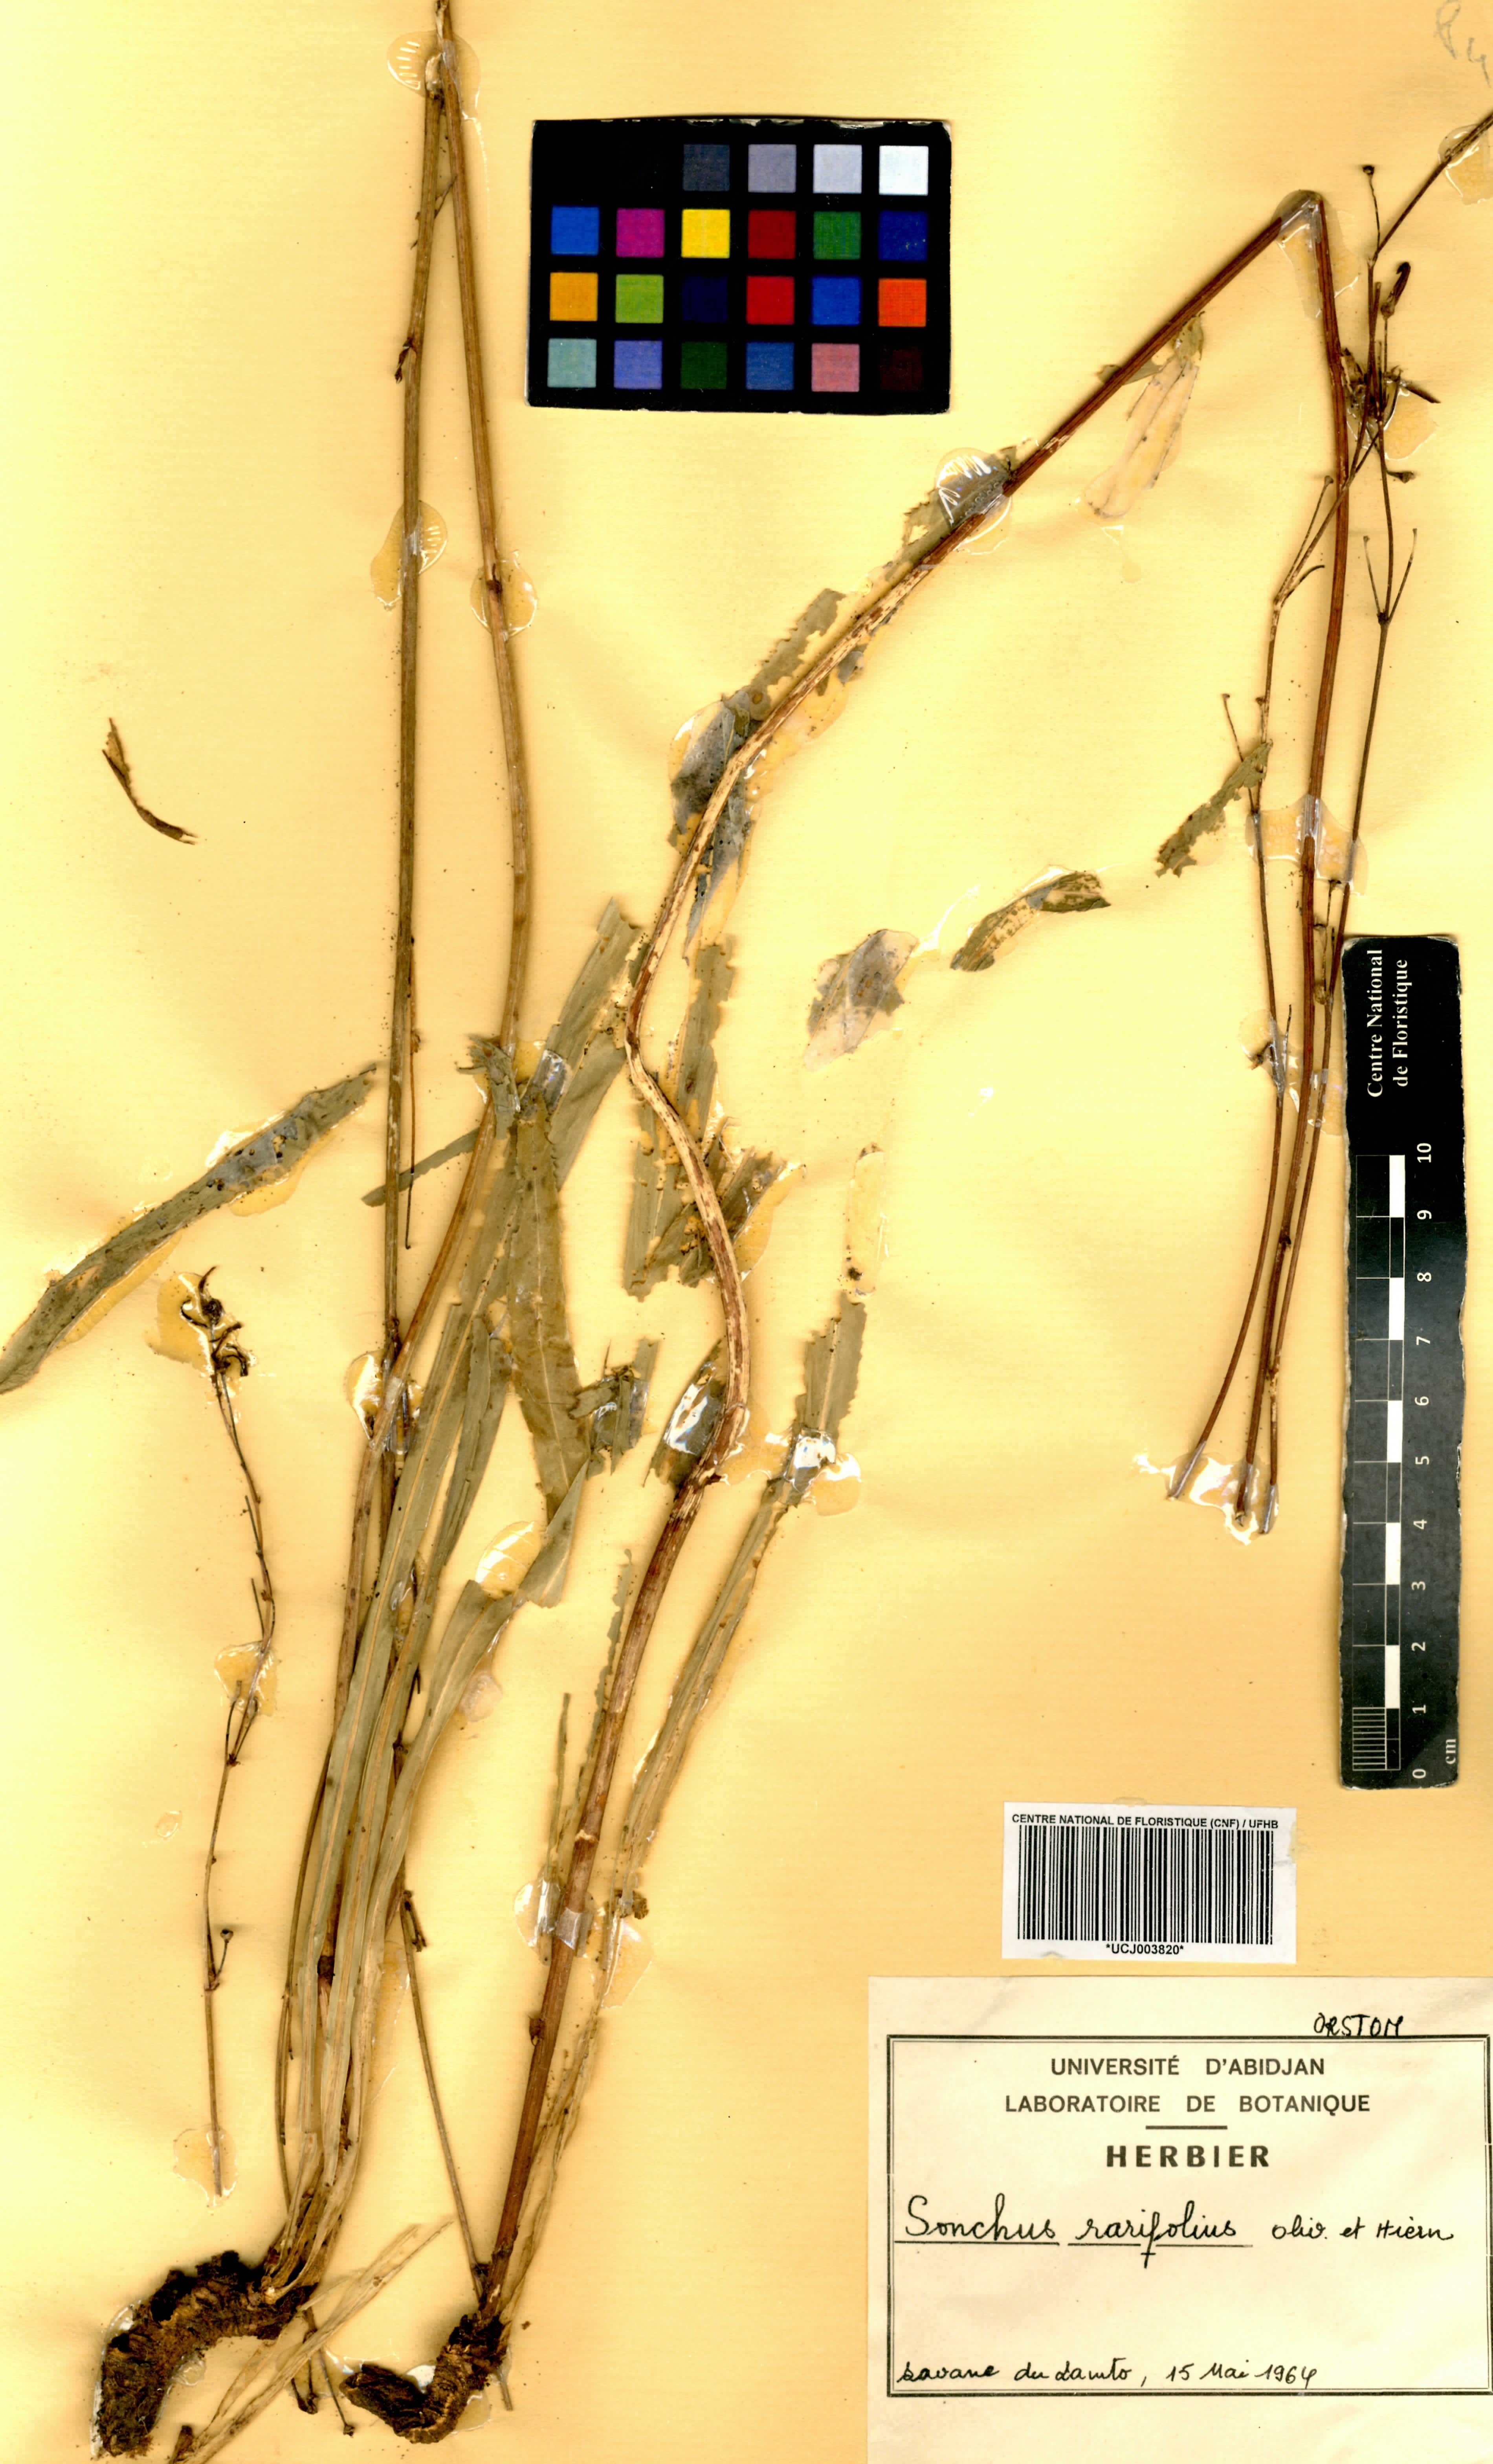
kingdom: Plantae
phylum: Tracheophyta
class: Magnoliopsida
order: Asterales
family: Asteraceae
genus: Launaea
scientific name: Launaea rarifolia
